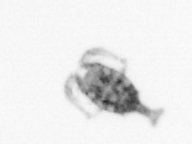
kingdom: Animalia
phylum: Arthropoda
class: Copepoda
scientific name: Copepoda
